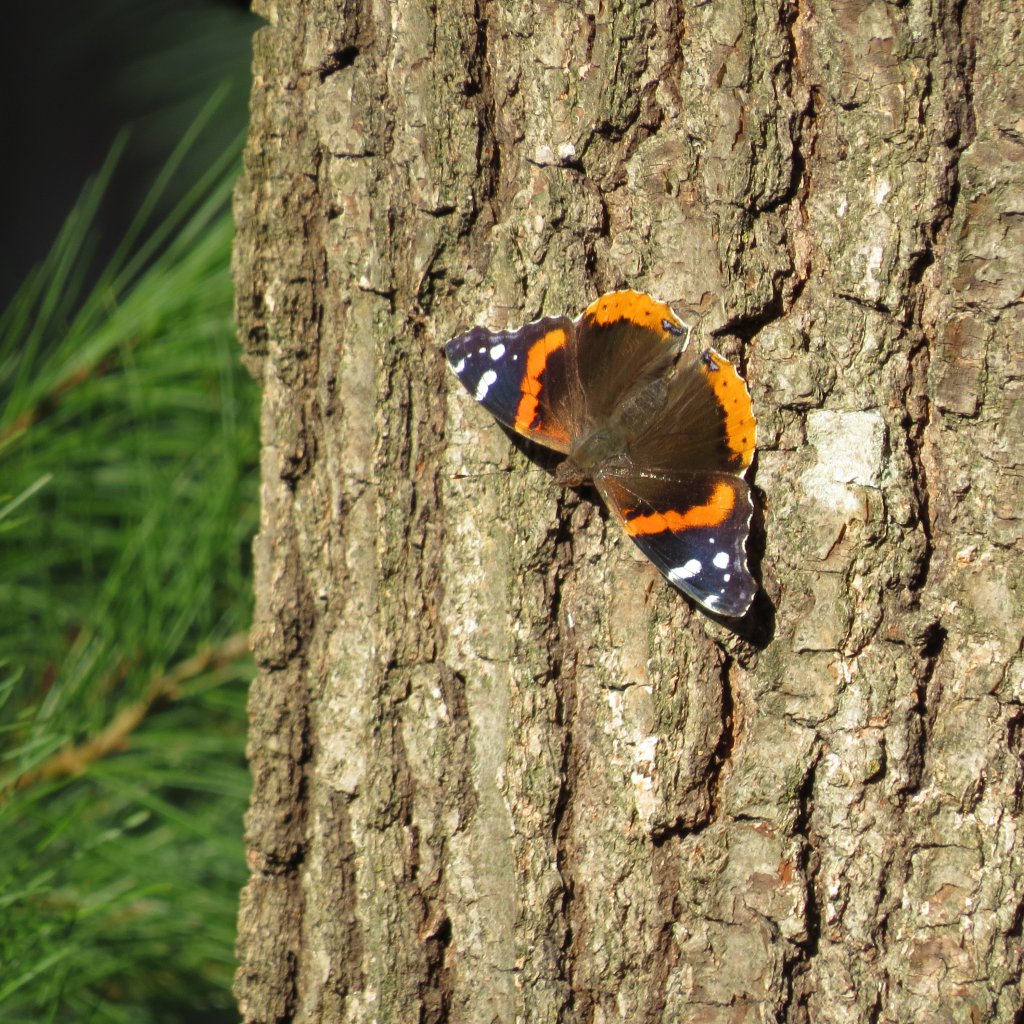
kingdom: Animalia
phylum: Arthropoda
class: Insecta
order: Lepidoptera
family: Nymphalidae
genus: Vanessa
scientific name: Vanessa atalanta
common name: Red Admiral
